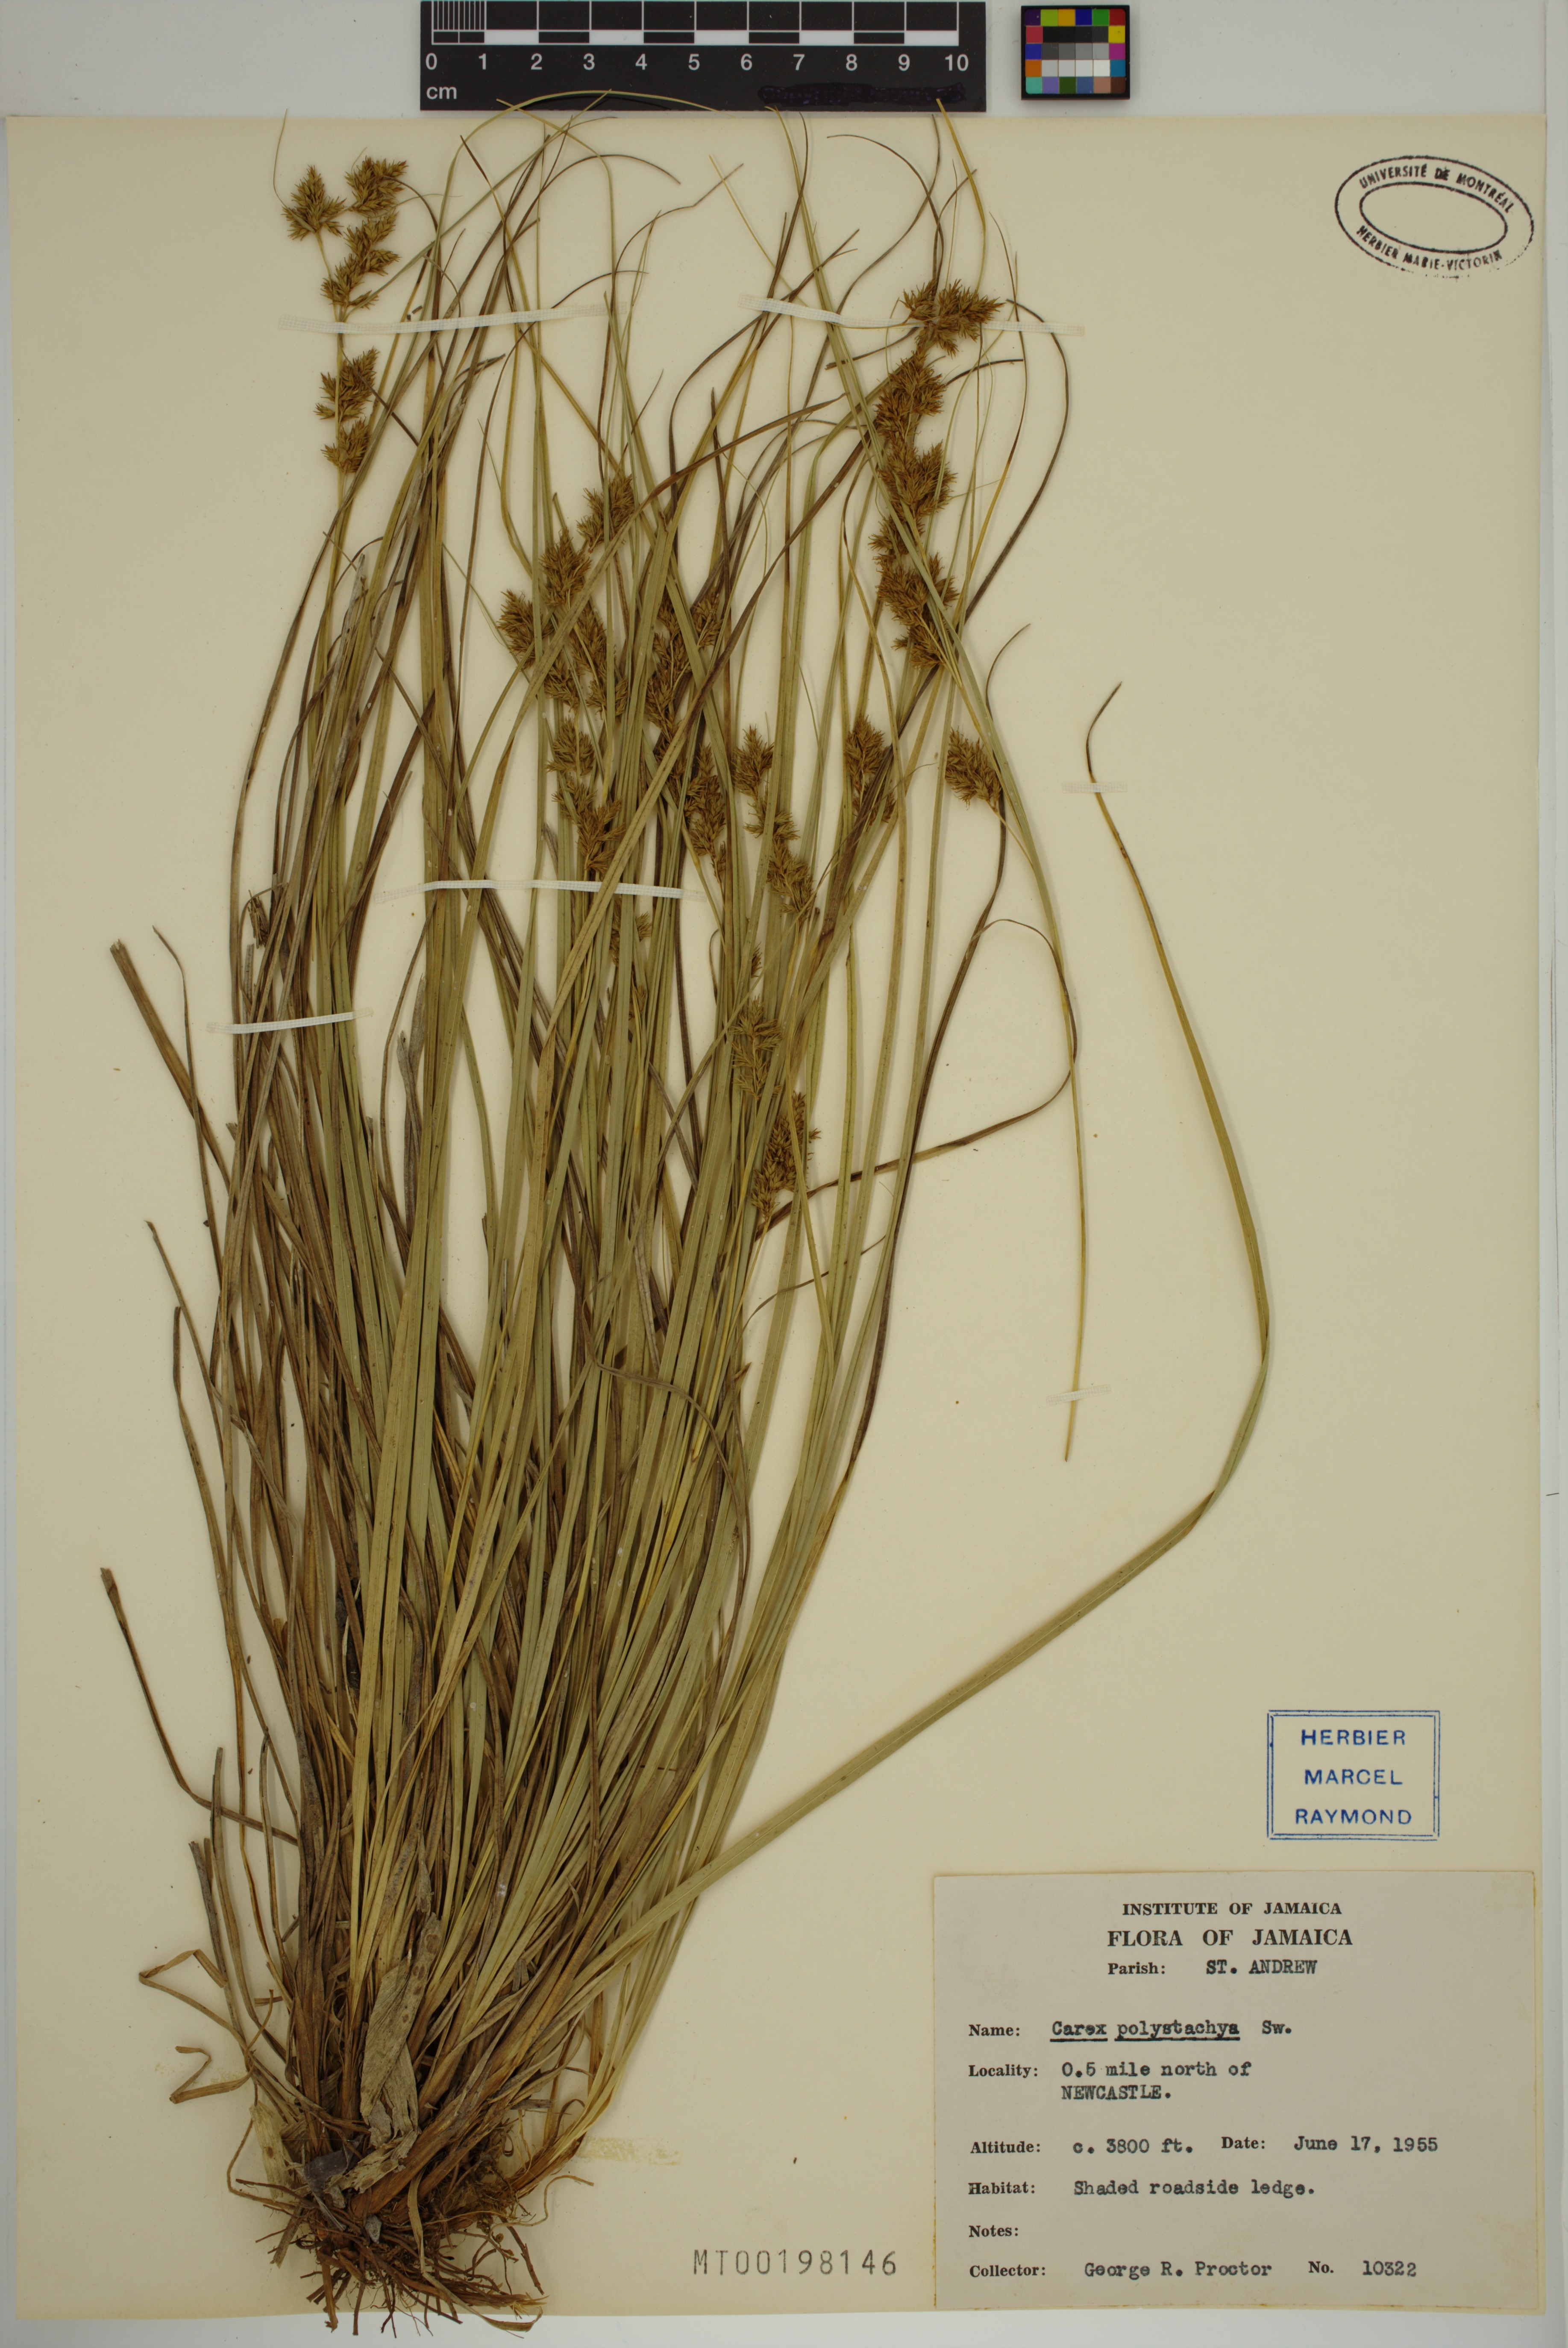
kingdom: Plantae
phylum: Tracheophyta
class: Liliopsida
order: Poales
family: Cyperaceae
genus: Carex
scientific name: Carex polystachya
